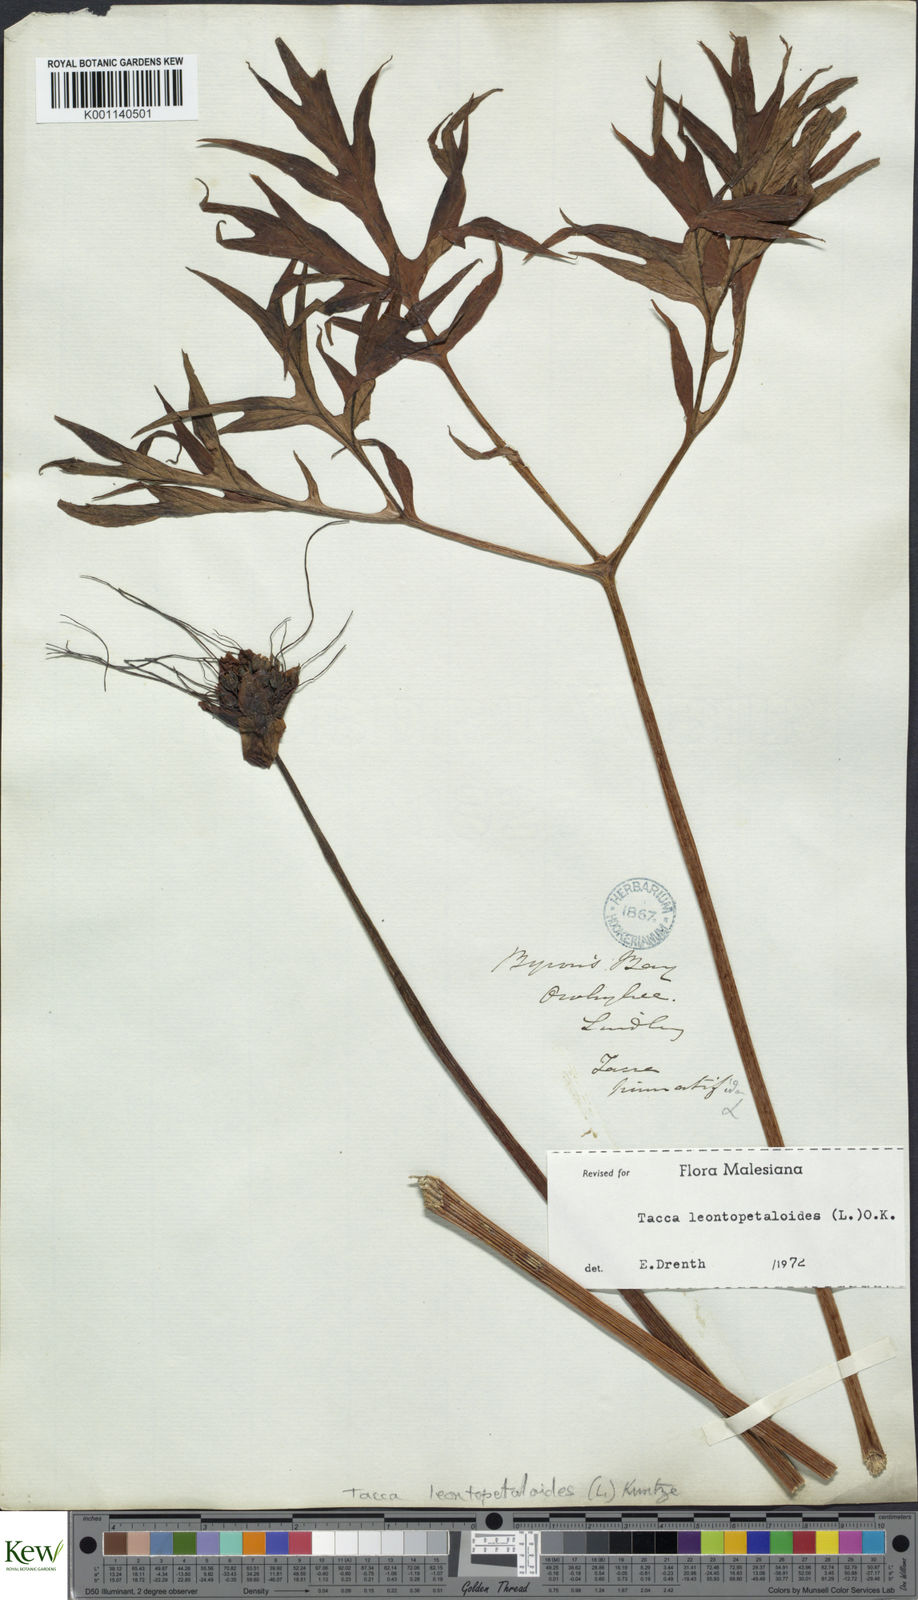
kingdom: Plantae
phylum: Tracheophyta
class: Liliopsida
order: Dioscoreales
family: Dioscoreaceae
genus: Tacca
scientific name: Tacca leontopetaloides
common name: Arrowroot
